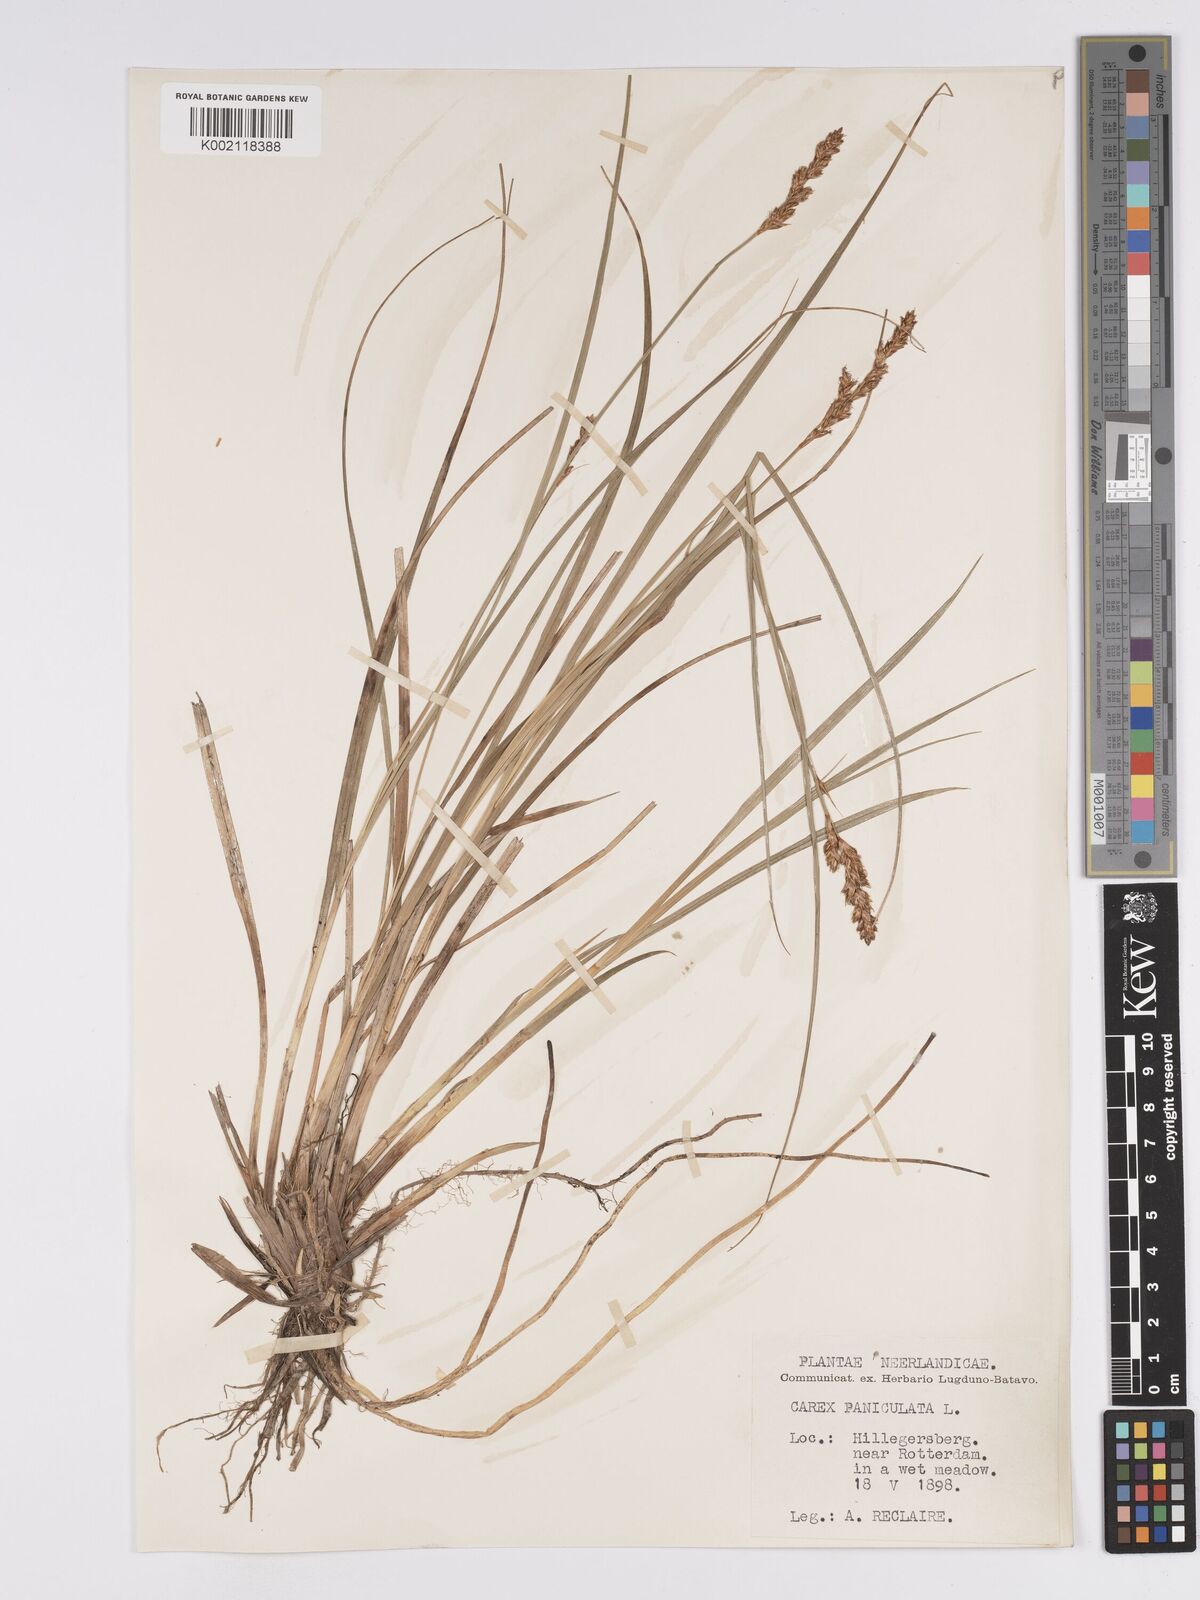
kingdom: Plantae
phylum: Tracheophyta
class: Liliopsida
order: Poales
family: Cyperaceae
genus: Carex
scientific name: Carex paniculata
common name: Greater tussock-sedge
